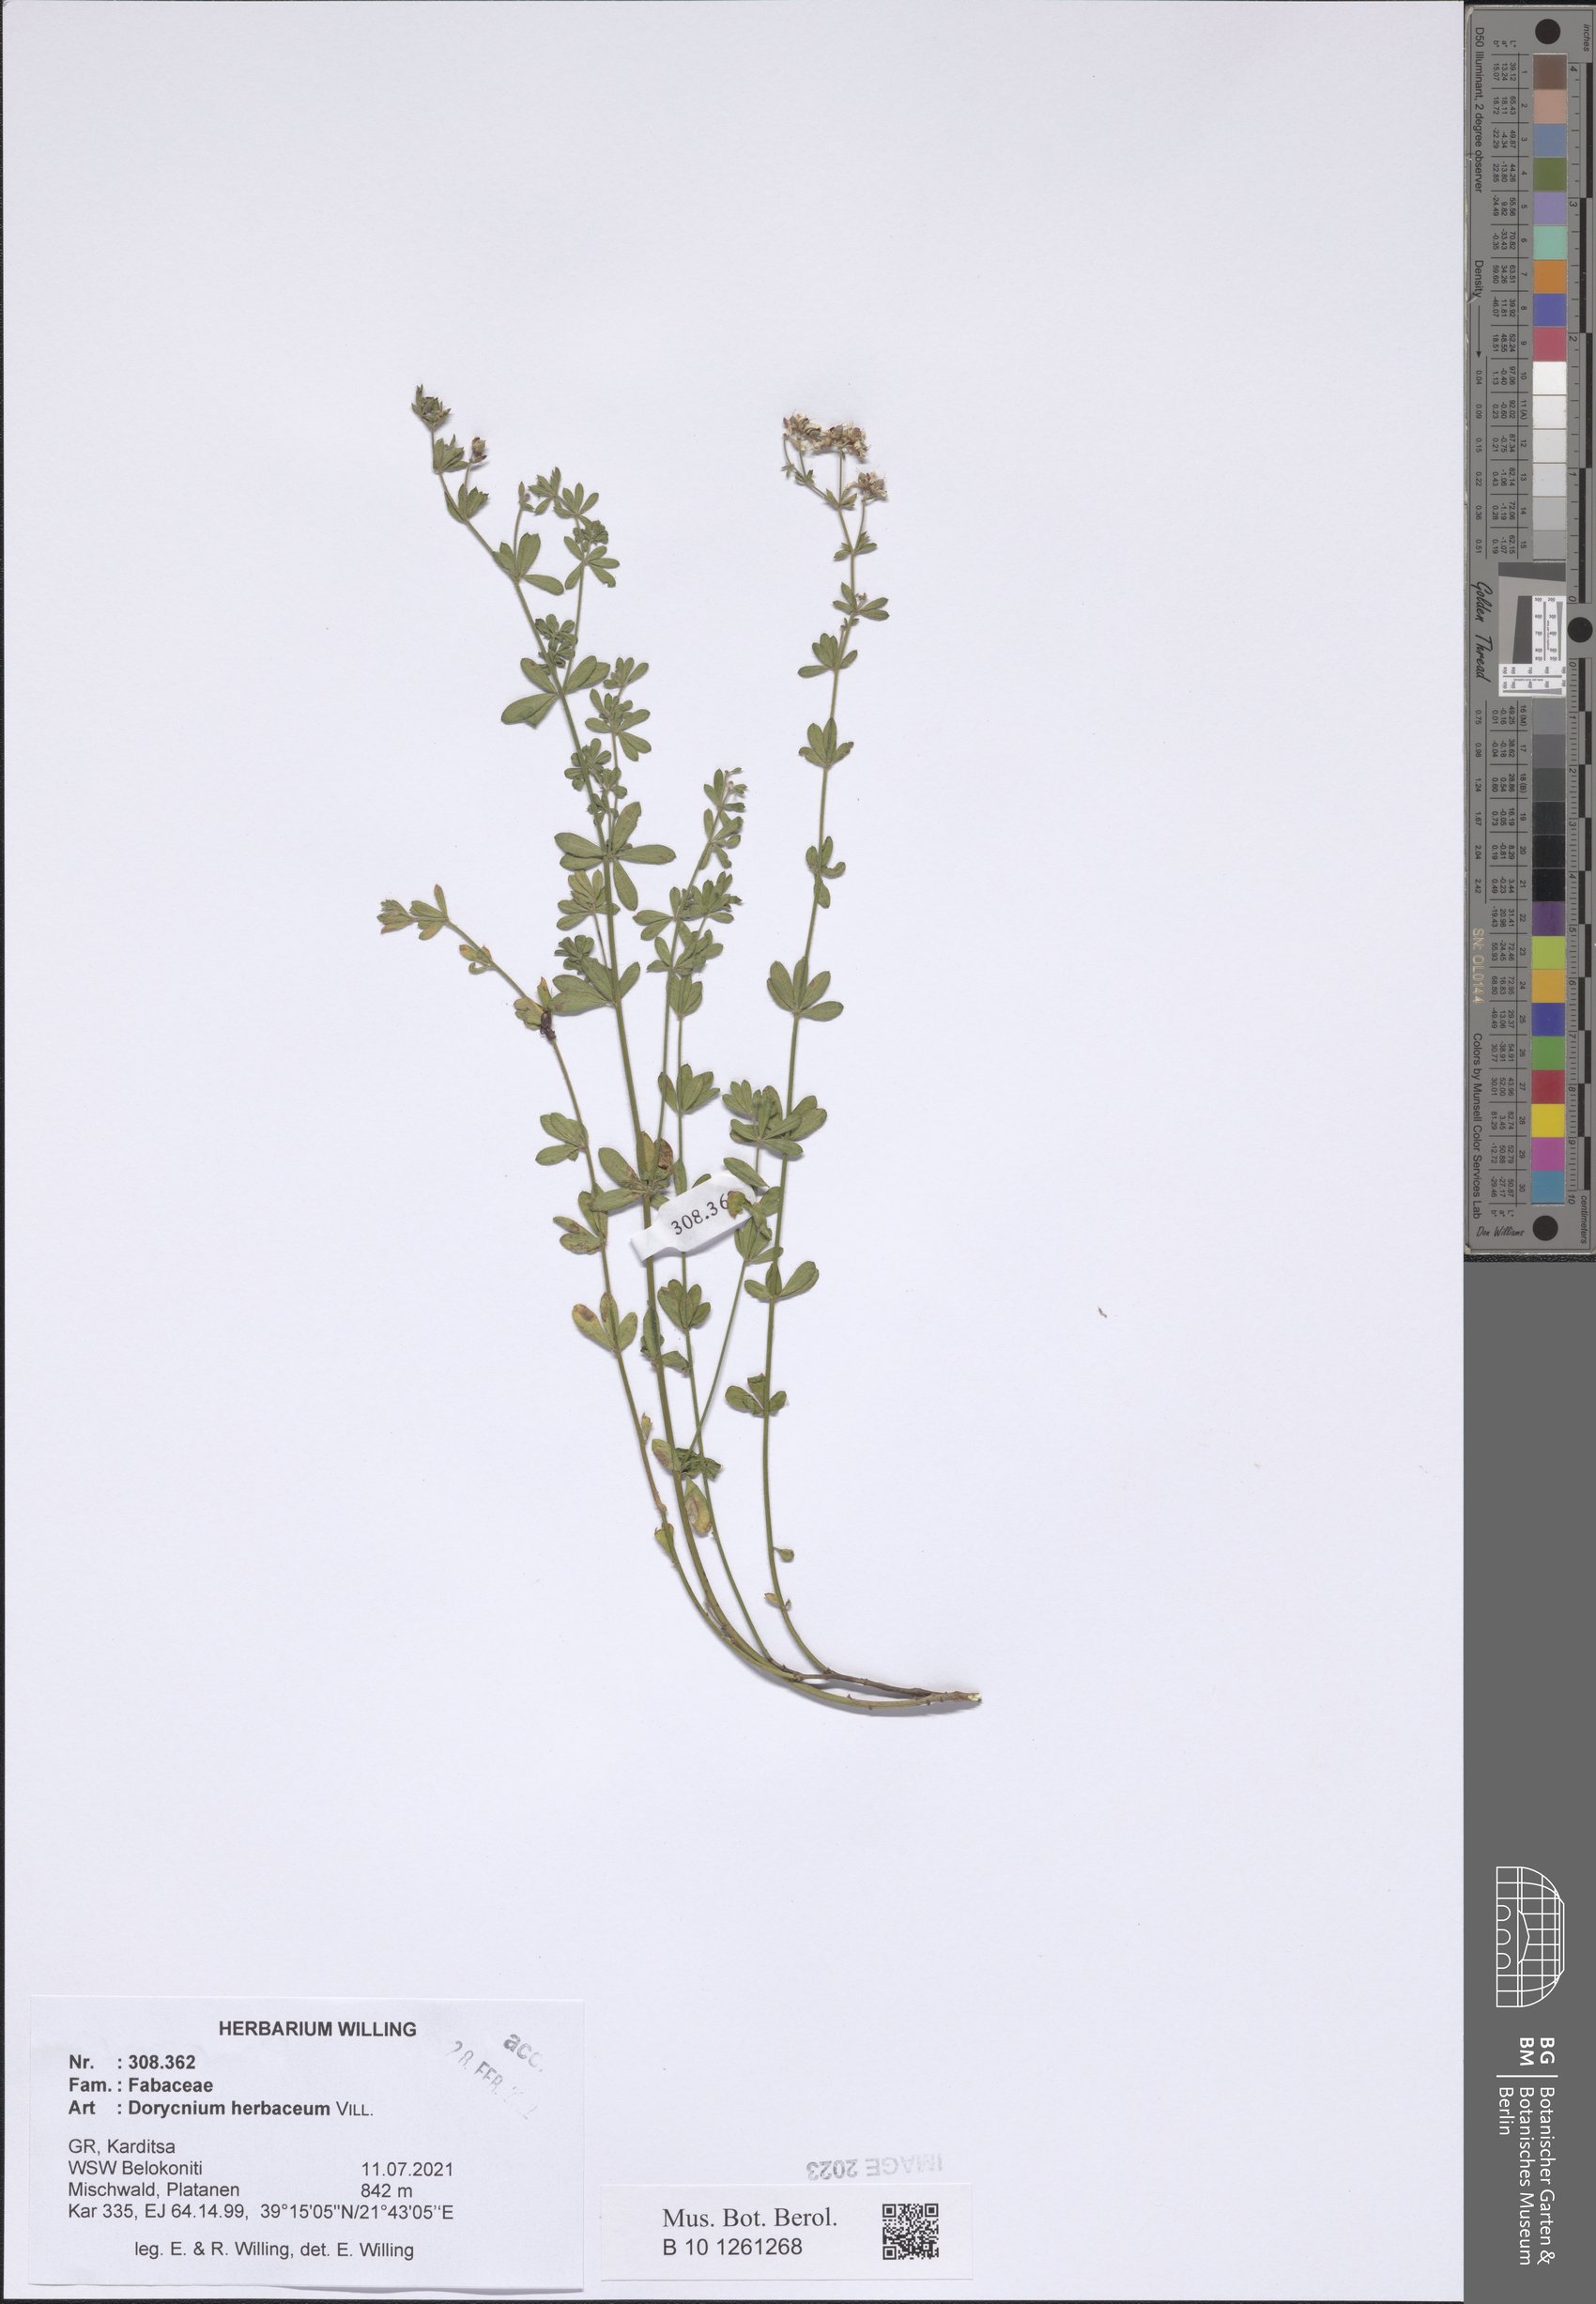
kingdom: Plantae
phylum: Tracheophyta
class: Magnoliopsida
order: Fabales
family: Fabaceae
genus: Lotus
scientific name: Lotus herbaceus
